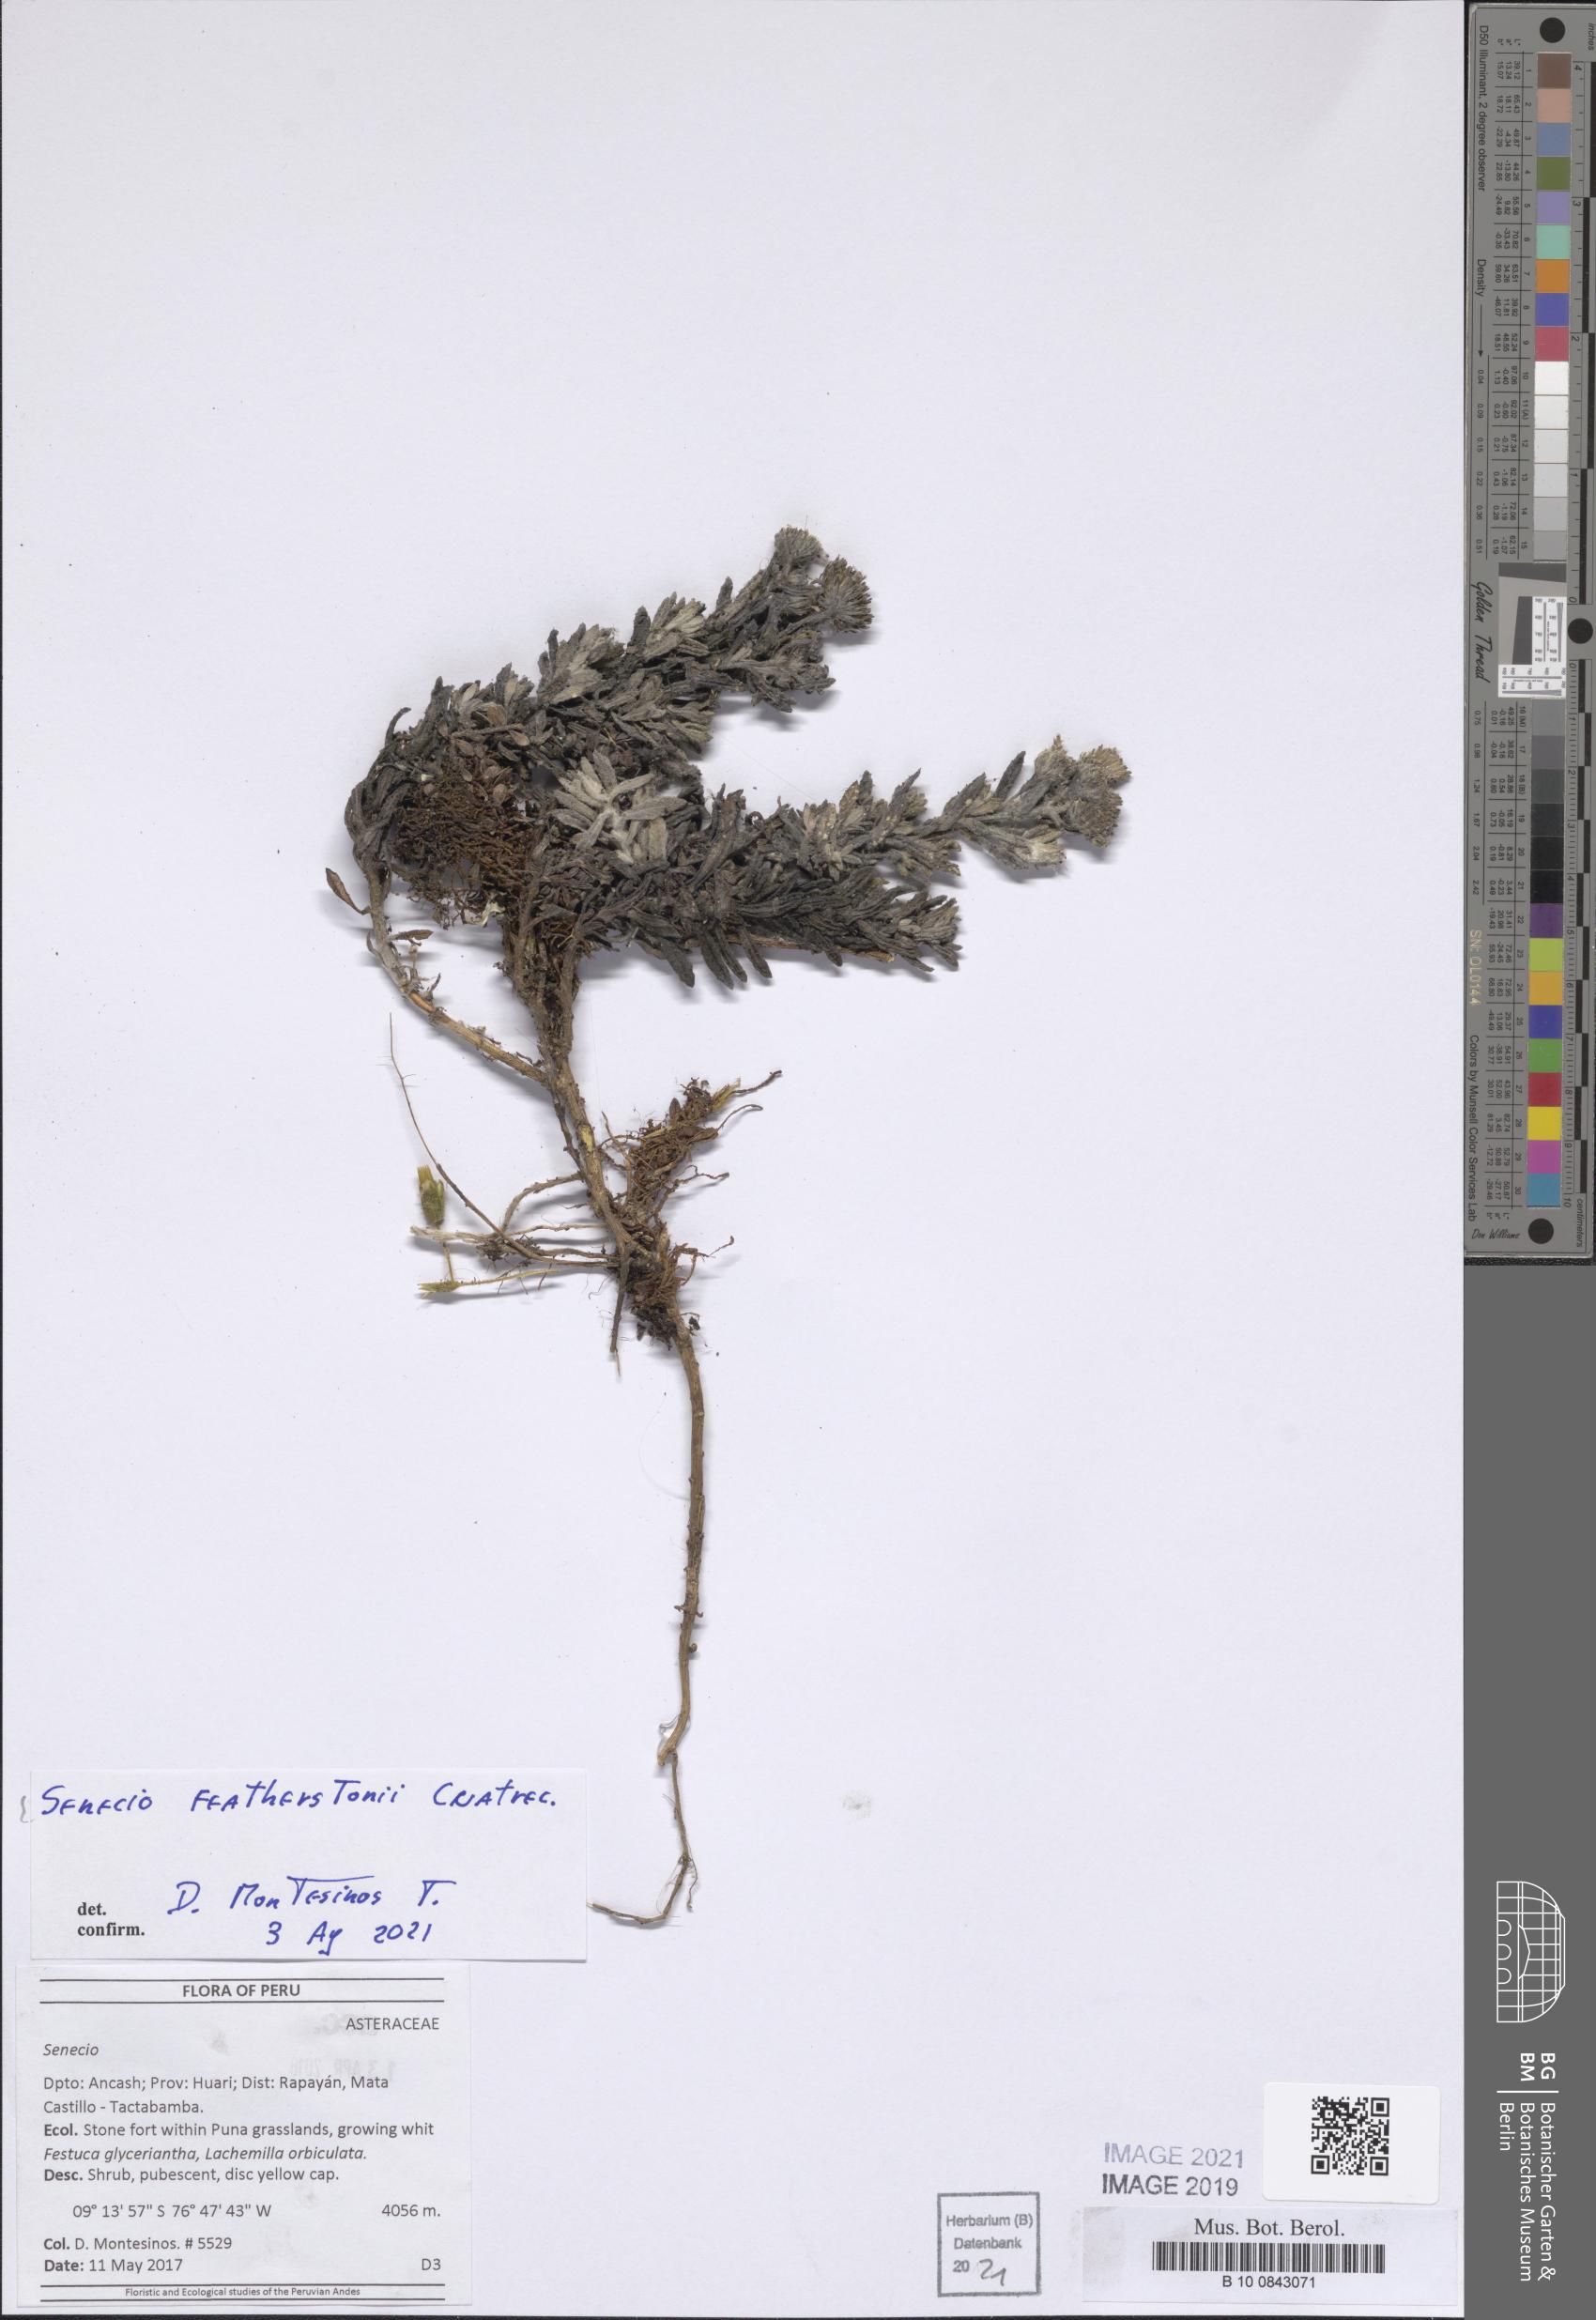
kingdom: Plantae
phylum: Tracheophyta
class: Magnoliopsida
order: Asterales
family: Asteraceae
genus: Senecio
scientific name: Senecio featherstonei
